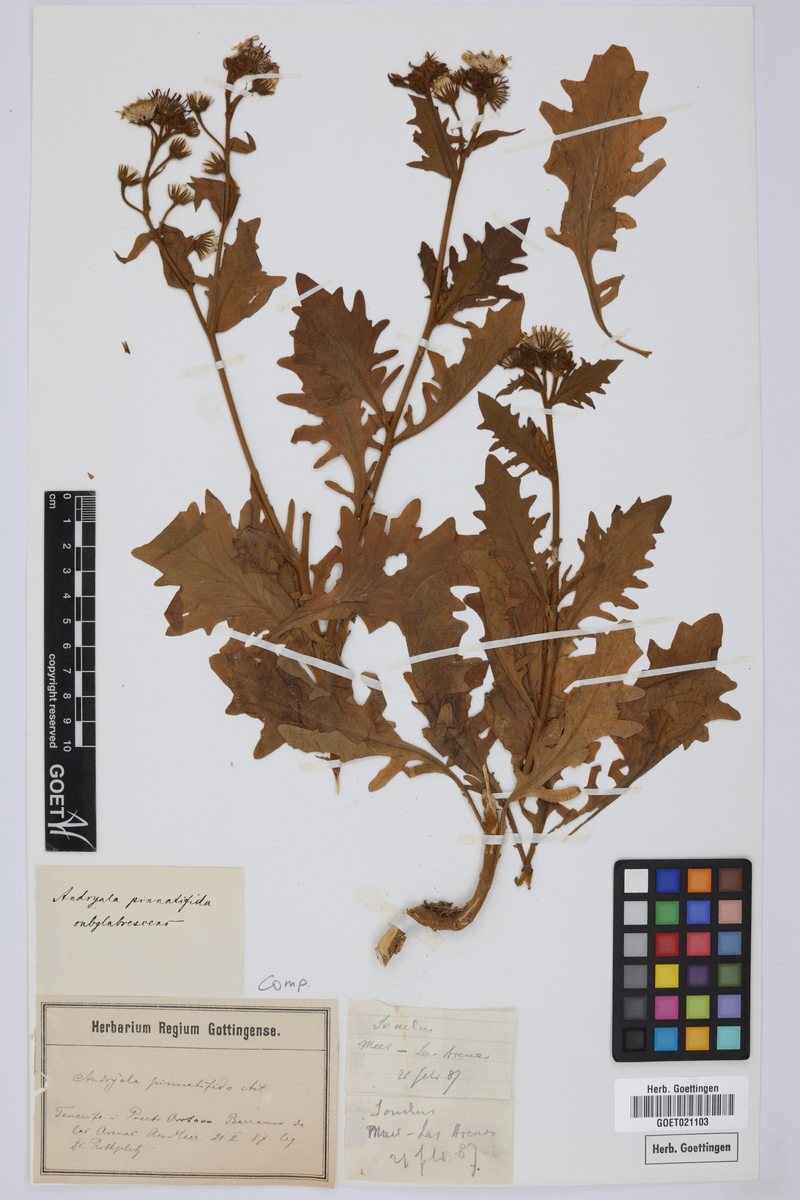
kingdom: Plantae
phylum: Tracheophyta
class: Magnoliopsida
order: Asterales
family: Asteraceae
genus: Andryala
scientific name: Andryala pinnatifida
